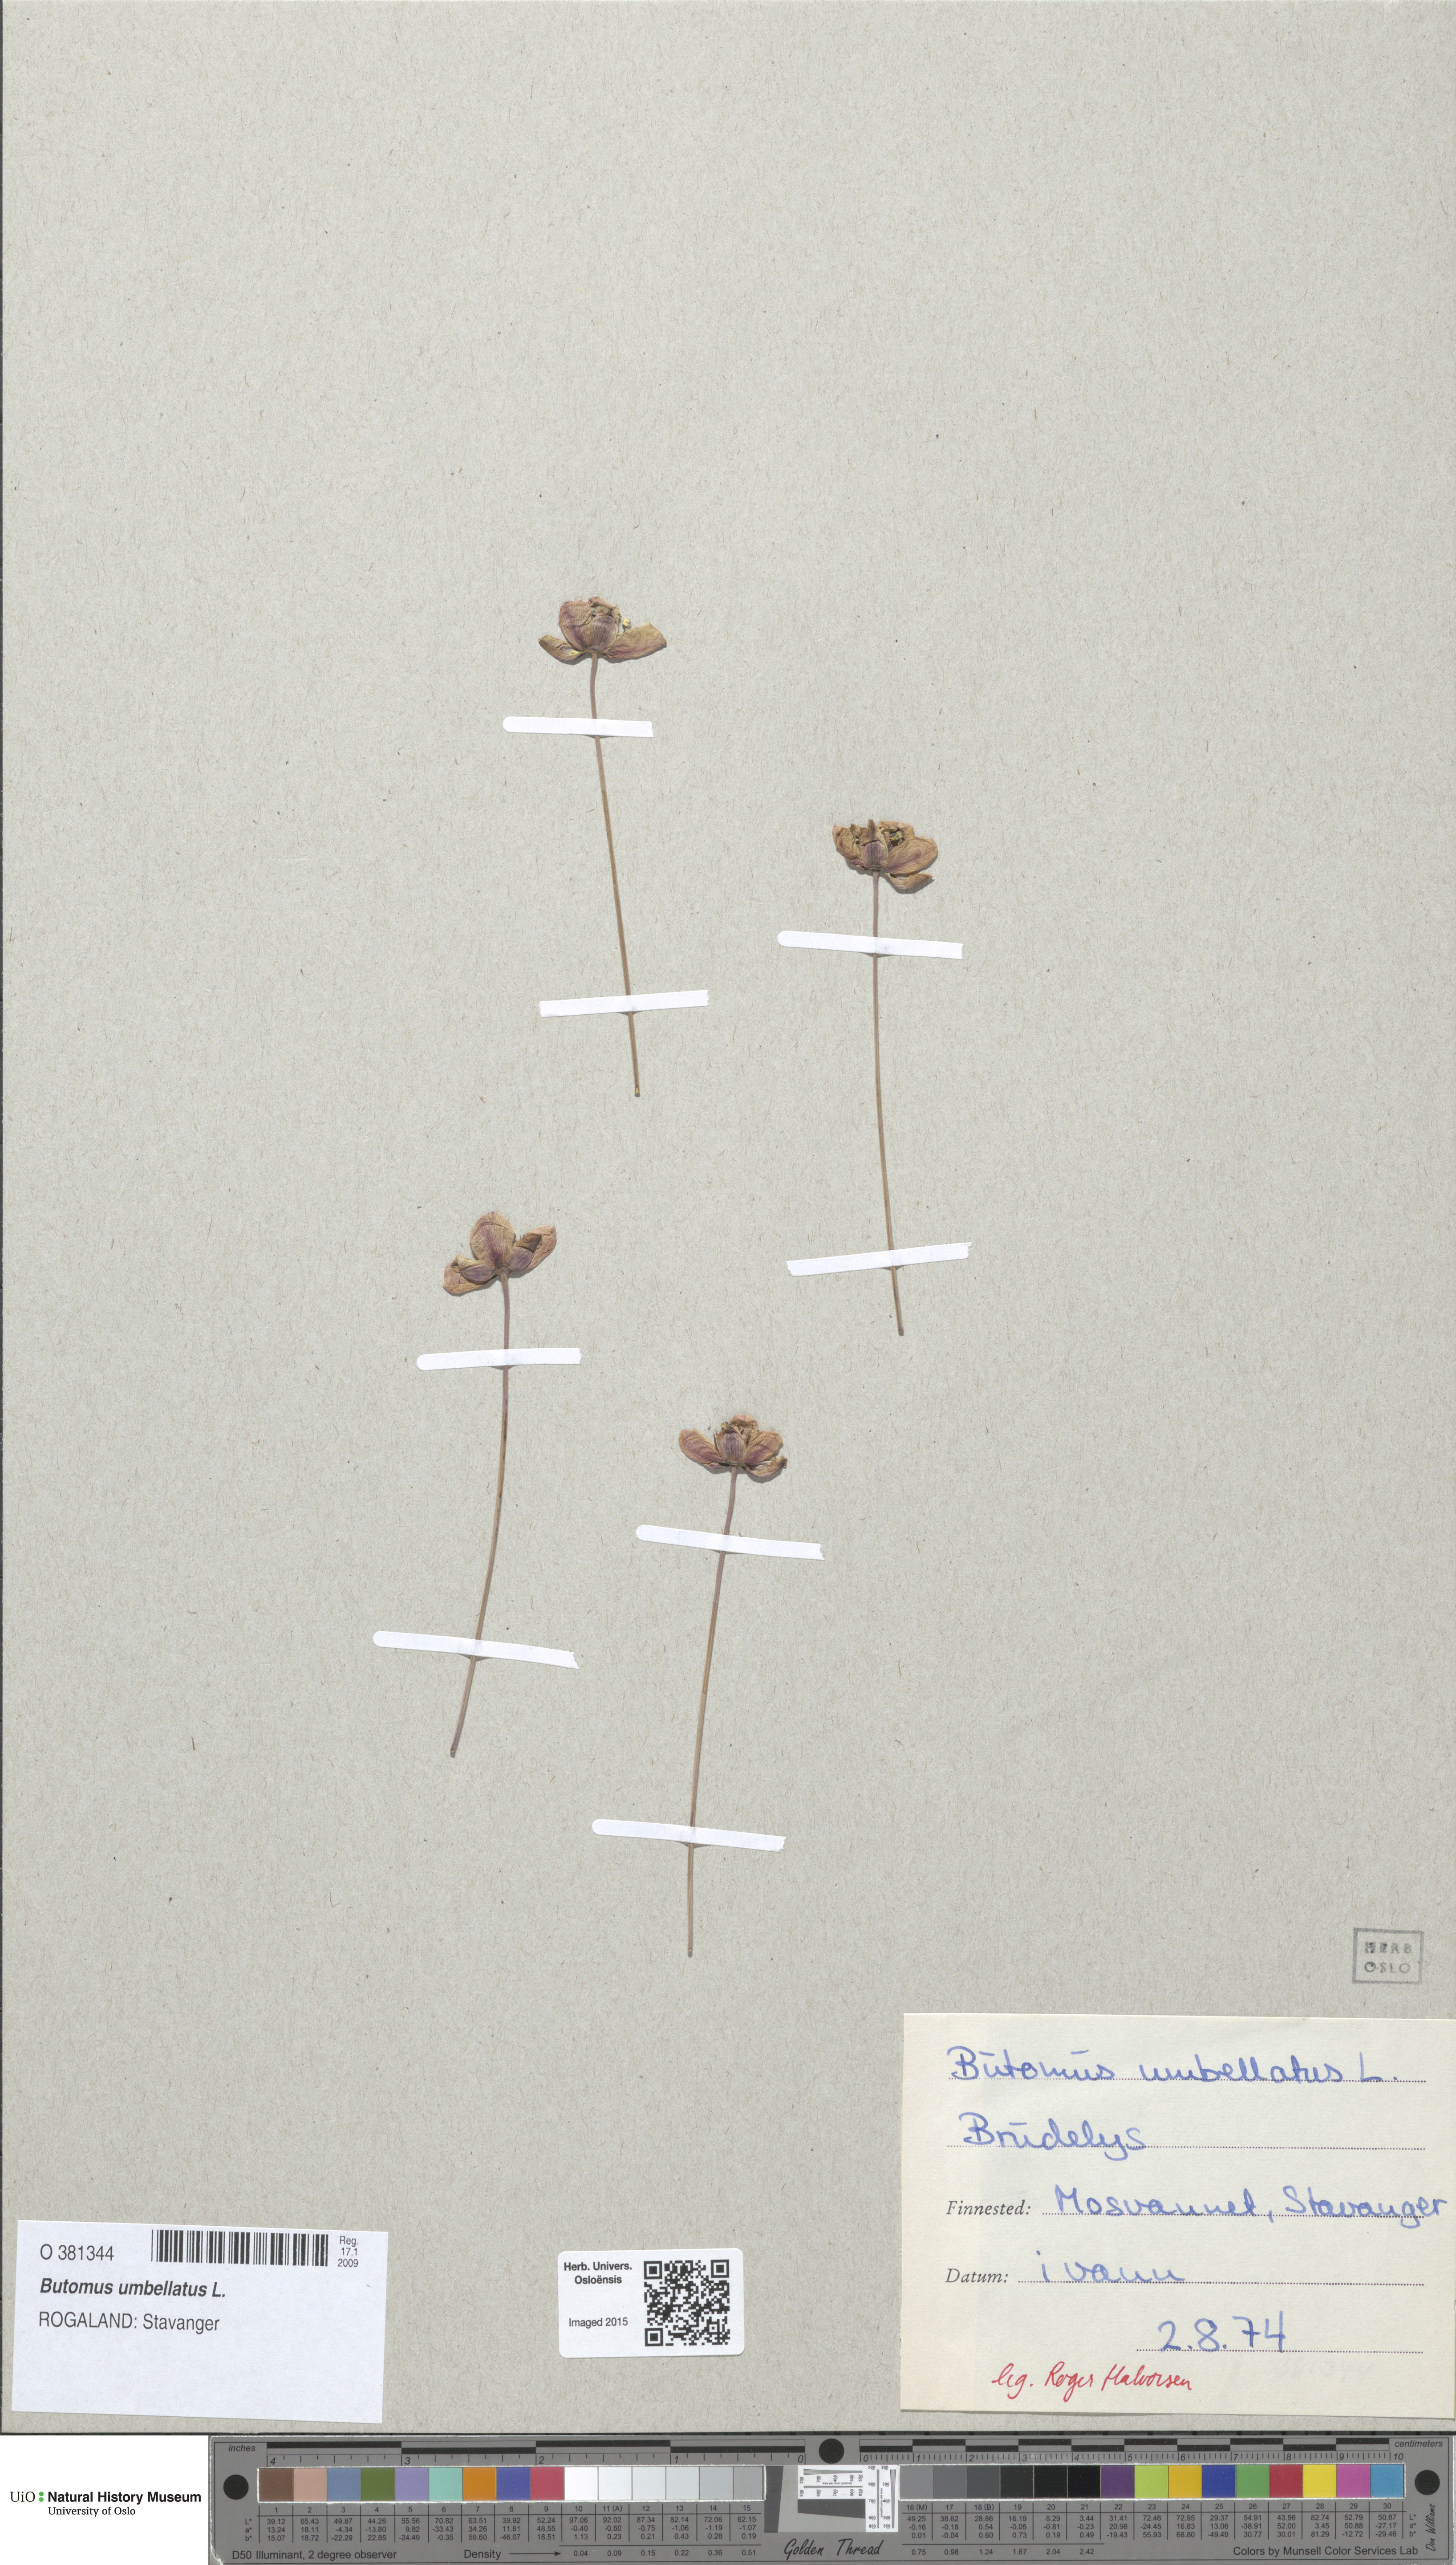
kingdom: Plantae
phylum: Tracheophyta
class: Liliopsida
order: Alismatales
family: Butomaceae
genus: Butomus
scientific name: Butomus umbellatus
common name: Flowering-rush
